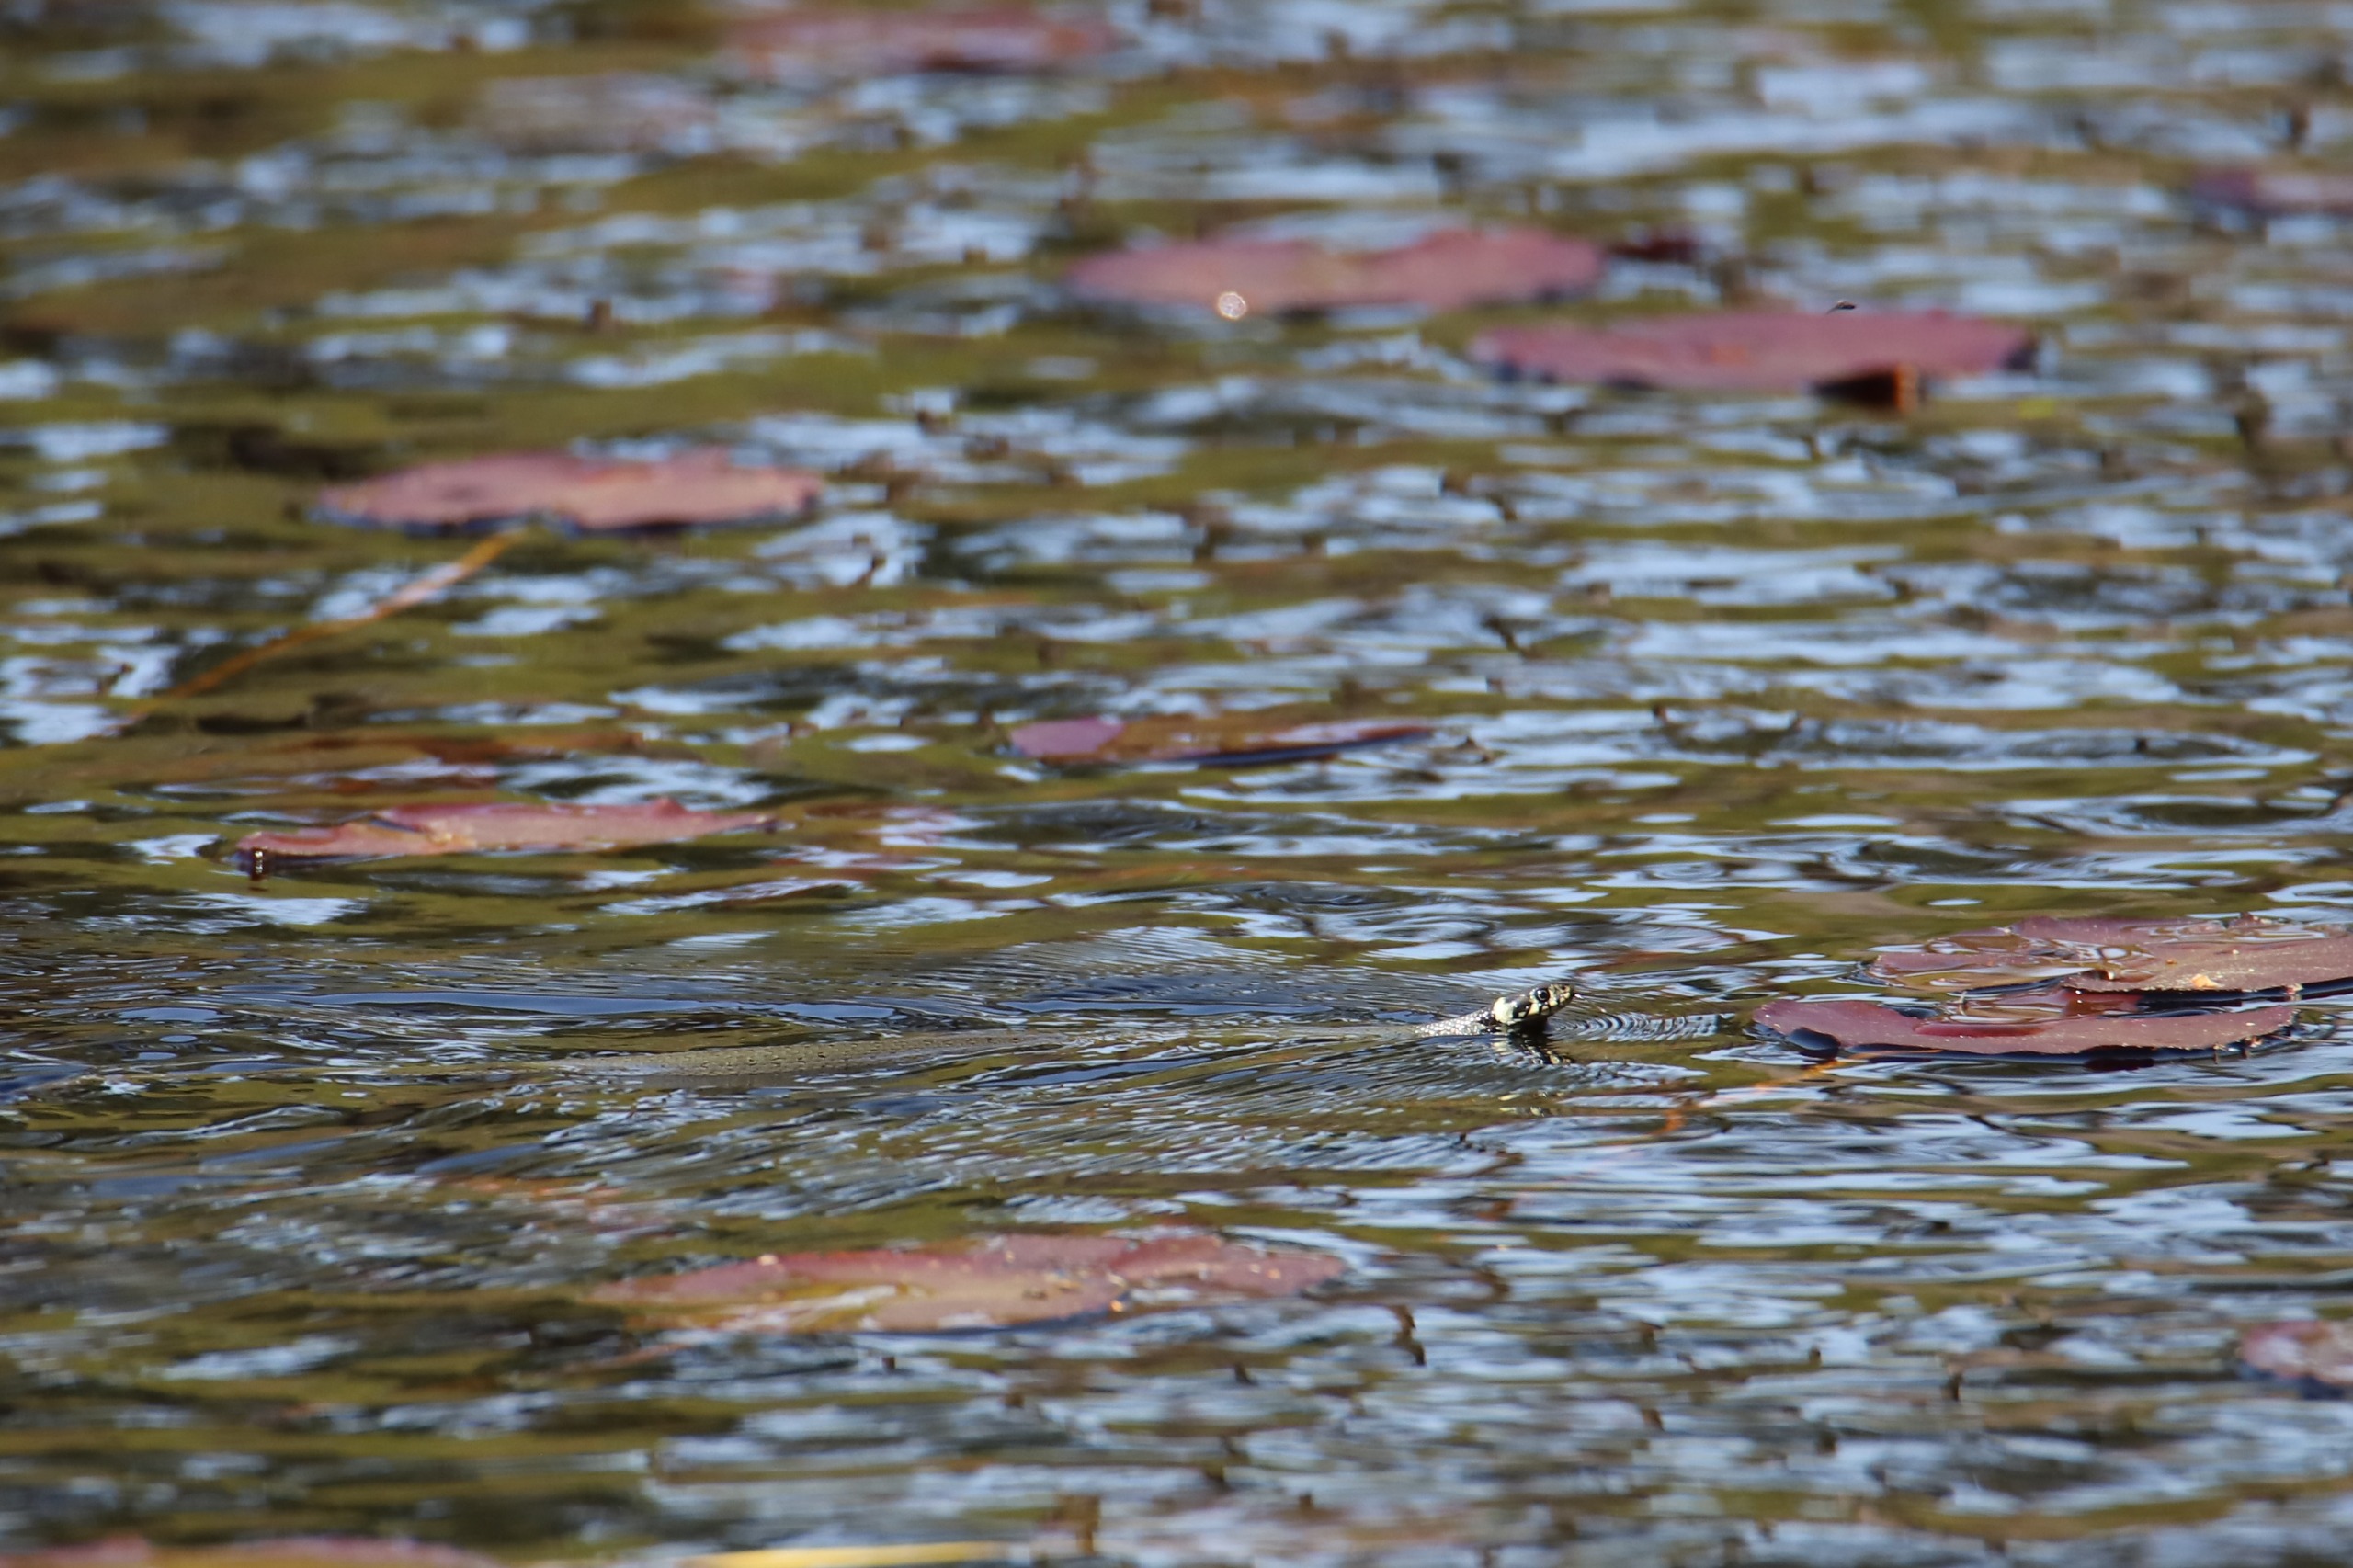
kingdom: Animalia
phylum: Chordata
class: Squamata
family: Colubridae
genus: Natrix
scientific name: Natrix natrix
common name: Snog
